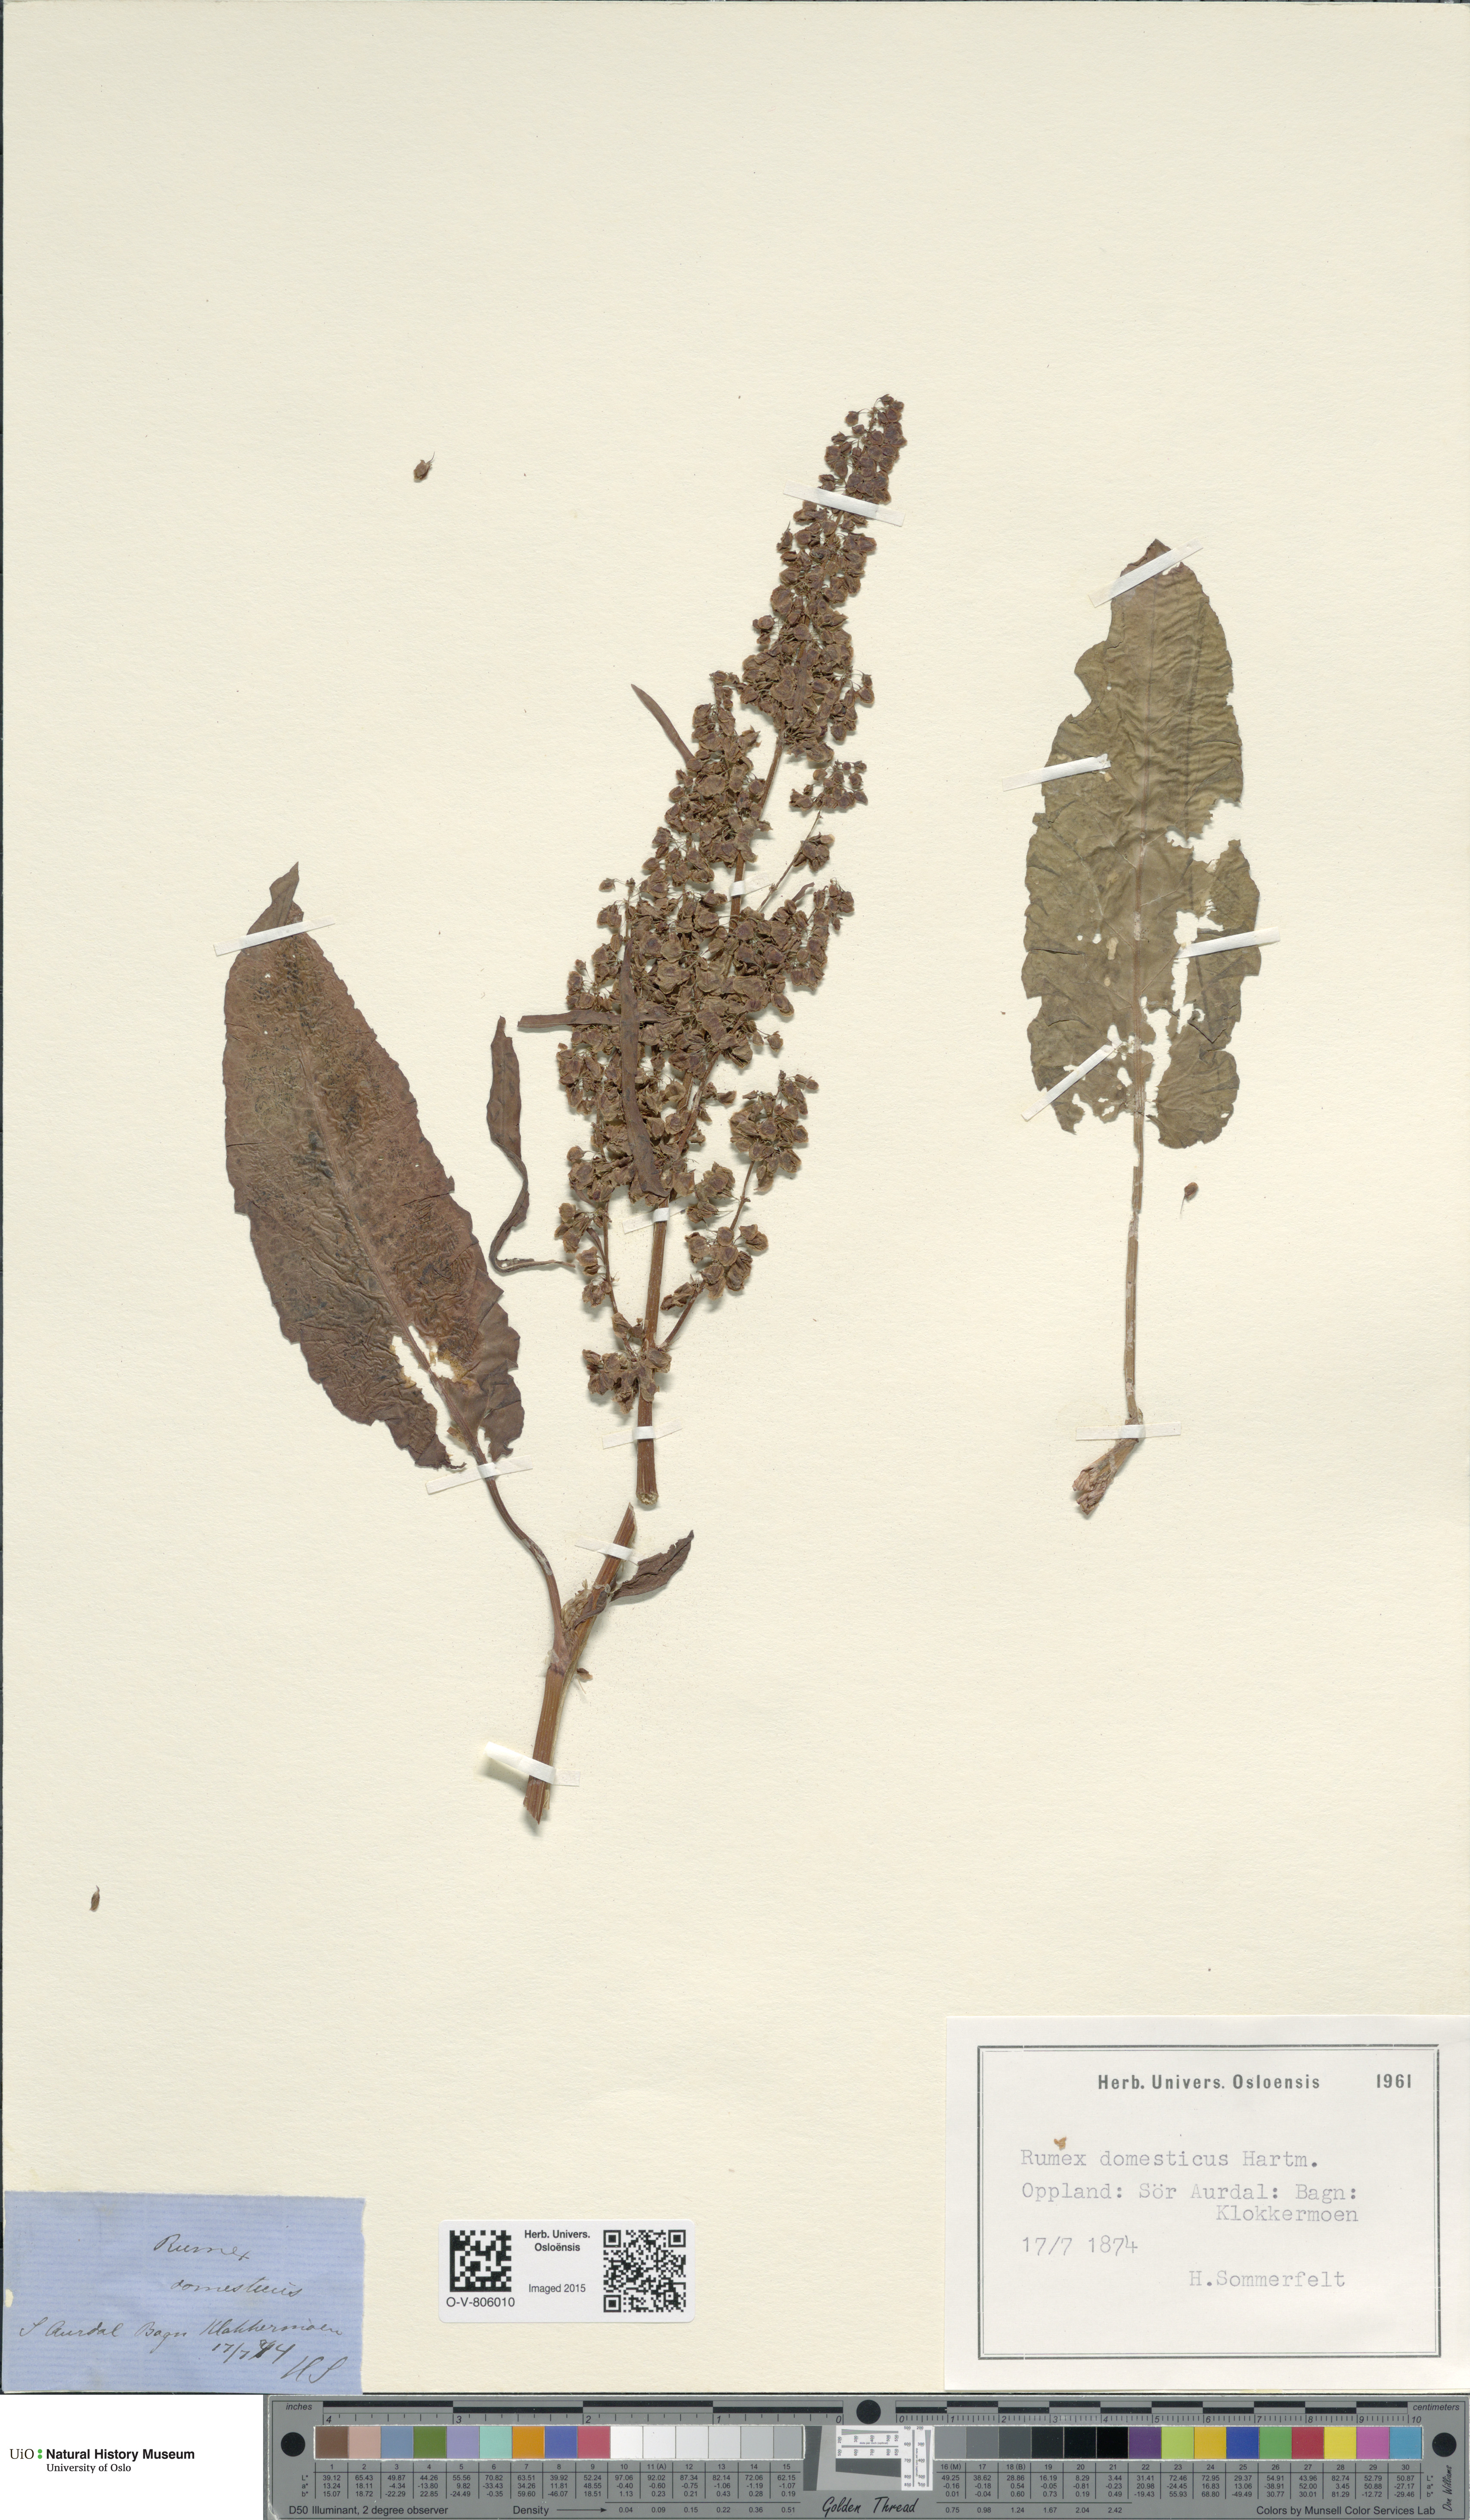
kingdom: Plantae
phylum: Tracheophyta
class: Magnoliopsida
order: Caryophyllales
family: Polygonaceae
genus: Rumex
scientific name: Rumex longifolius
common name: Dooryard dock
